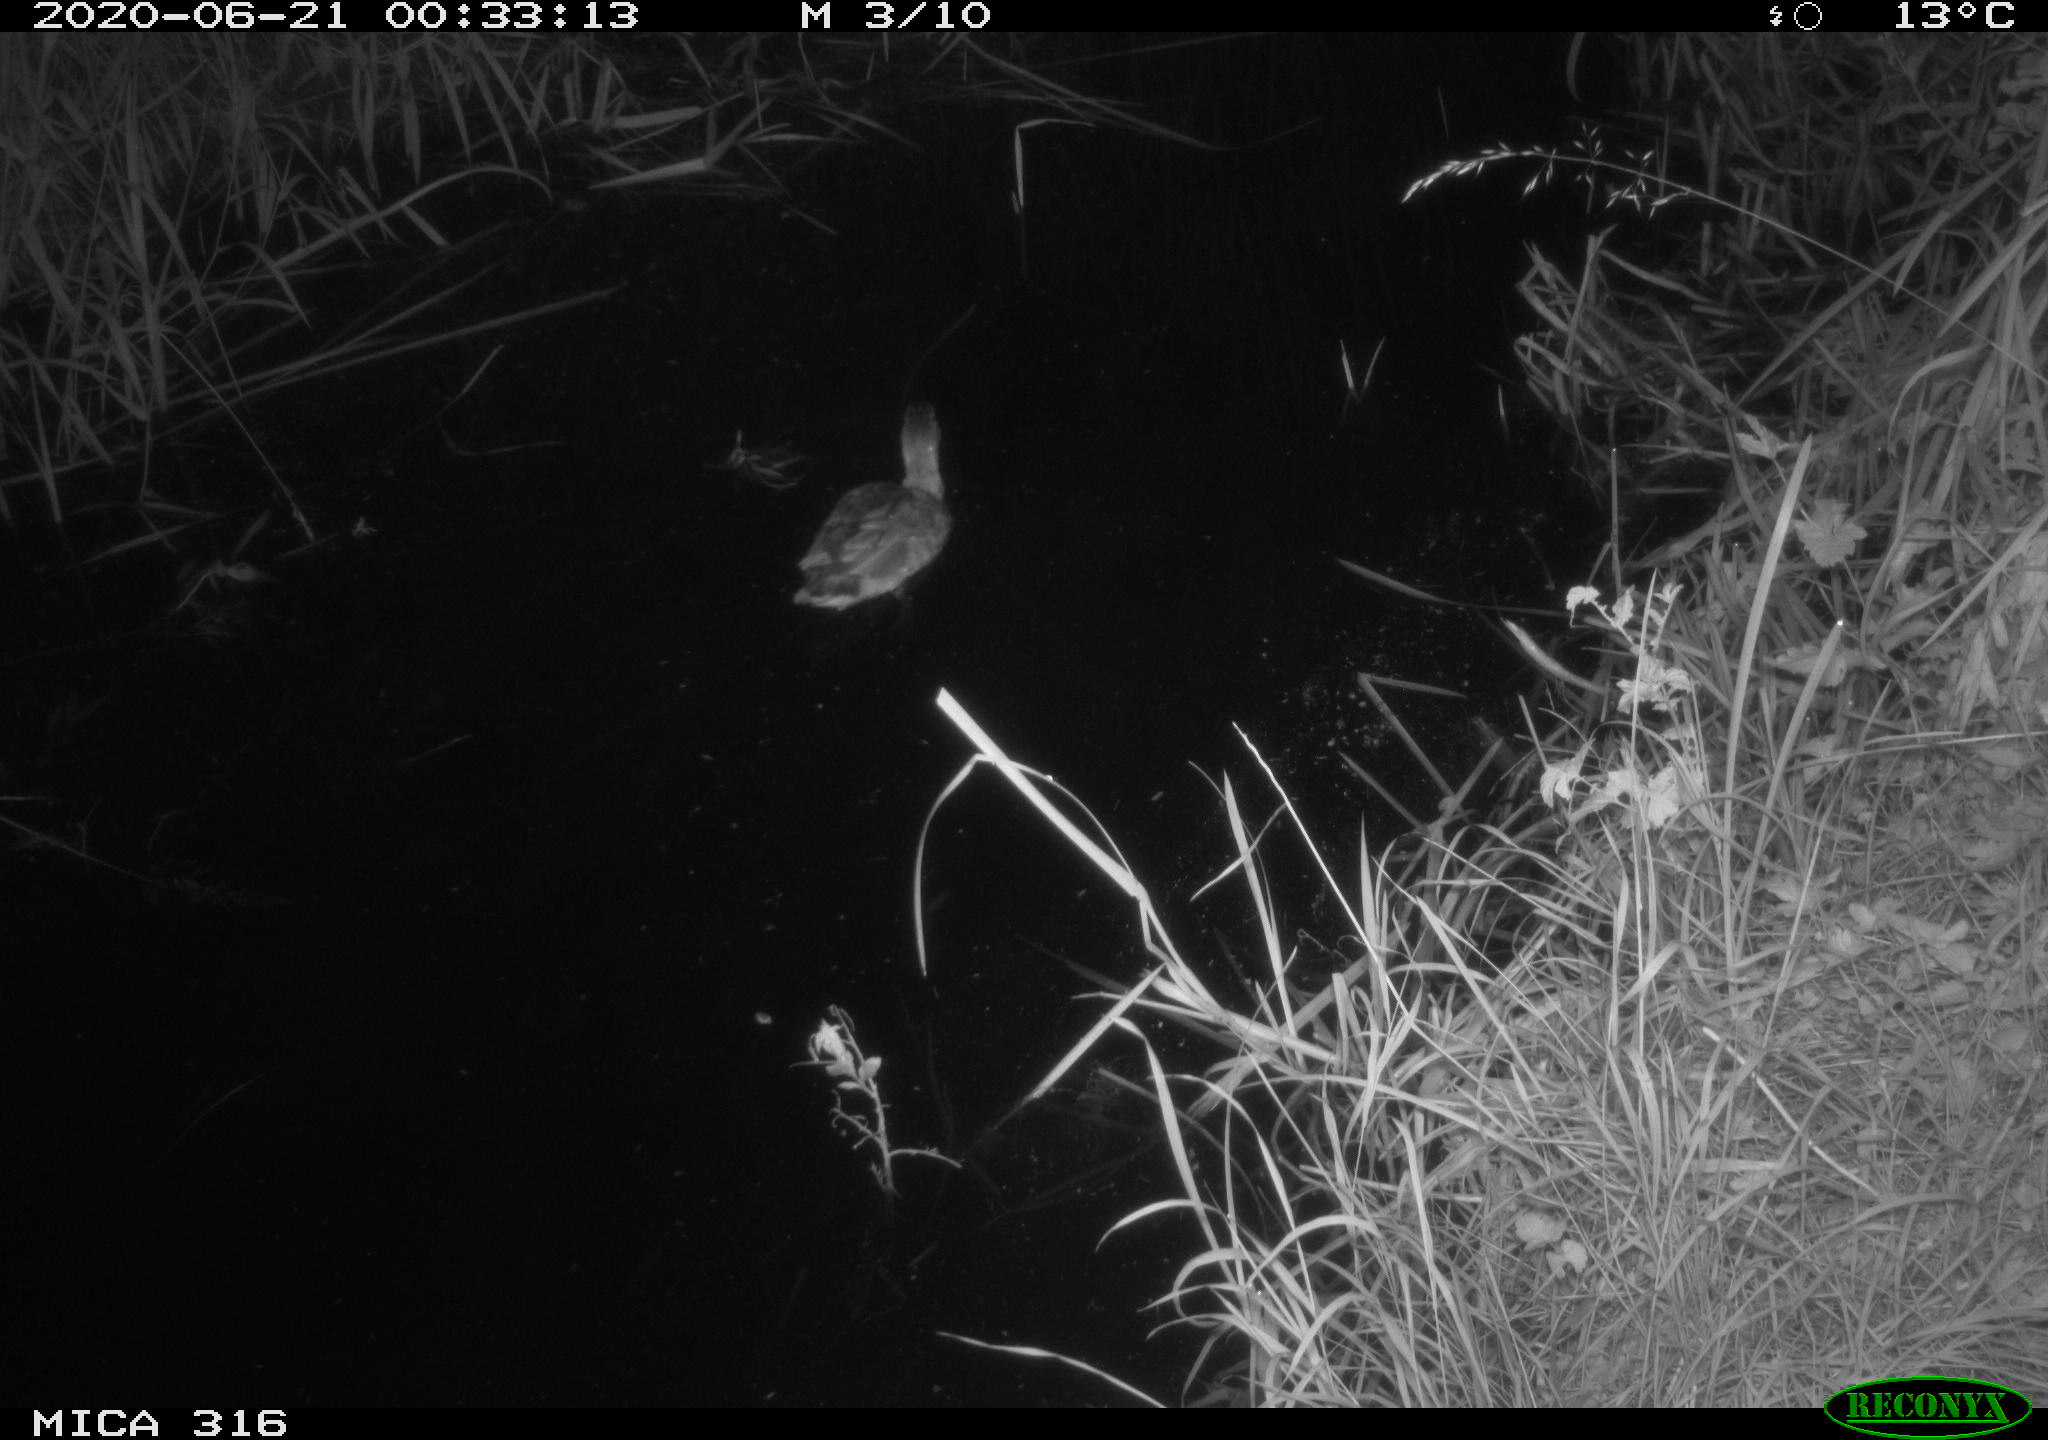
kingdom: Animalia
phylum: Chordata
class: Aves
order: Anseriformes
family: Anatidae
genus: Anas
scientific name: Anas platyrhynchos
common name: Mallard
